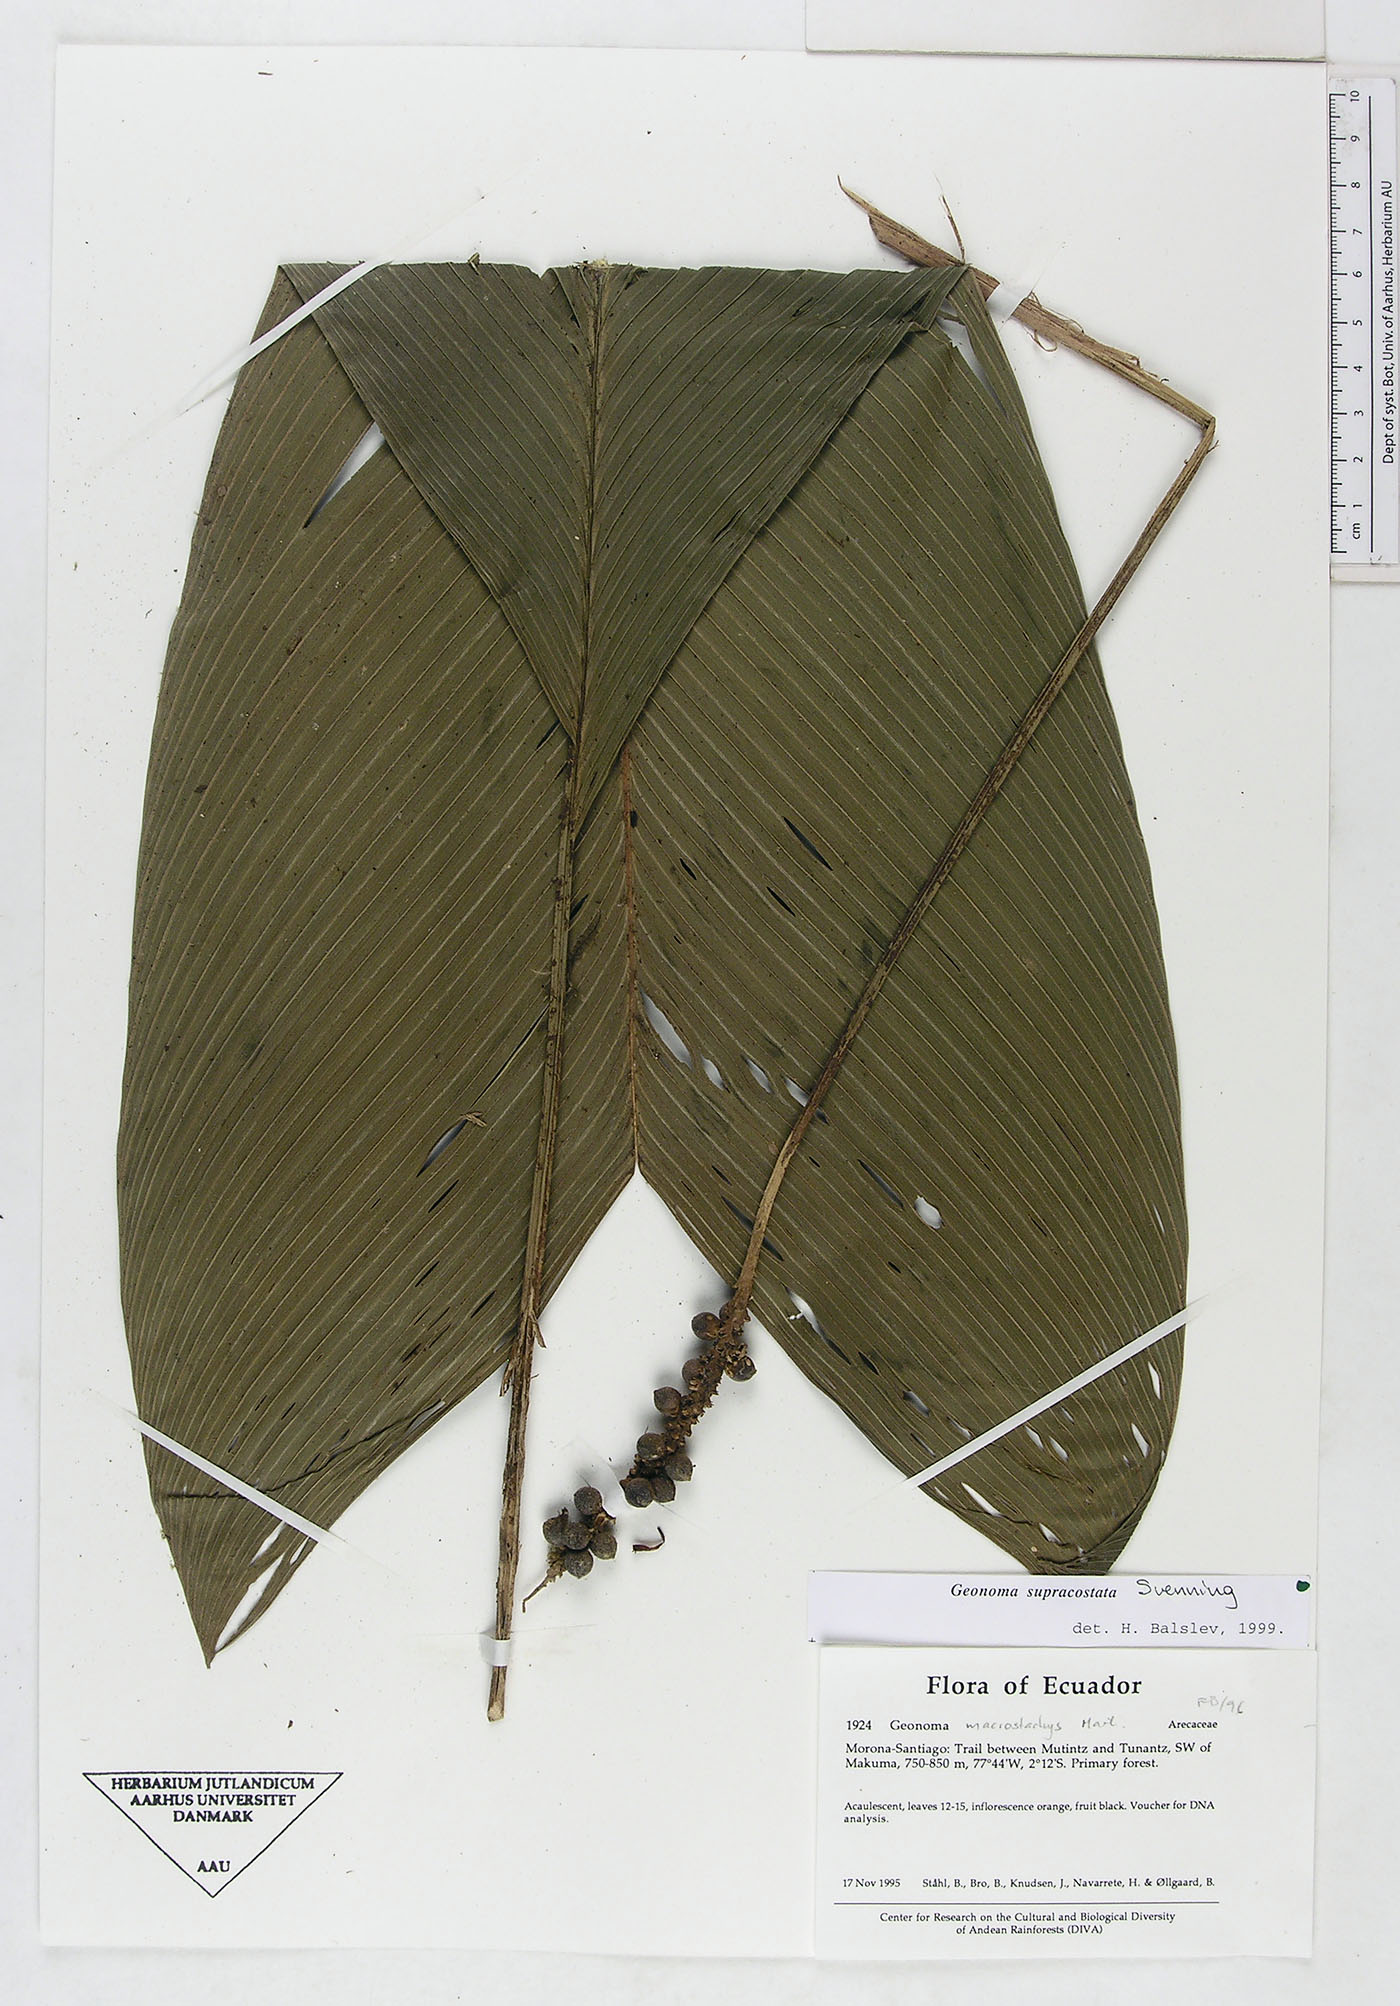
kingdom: Plantae
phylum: Tracheophyta
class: Liliopsida
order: Arecales
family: Arecaceae
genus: Geonoma
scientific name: Geonoma macrostachys
